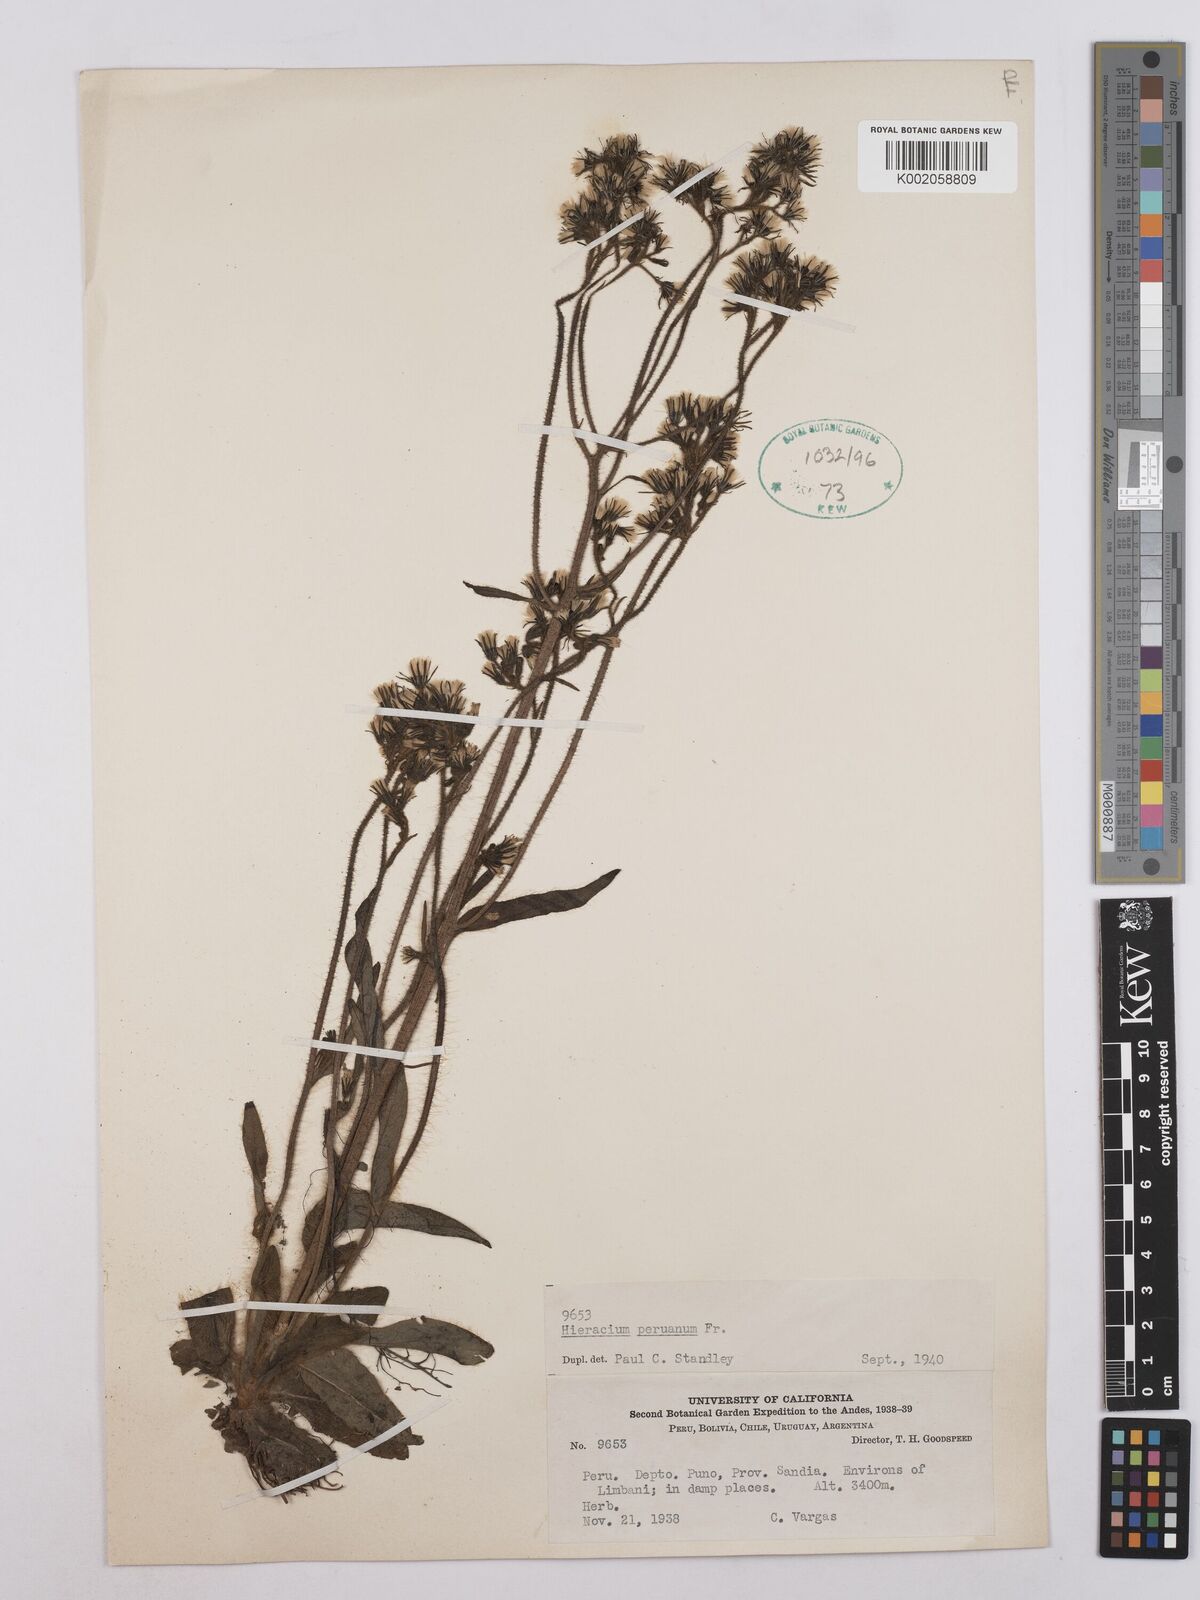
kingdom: Plantae
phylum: Tracheophyta
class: Magnoliopsida
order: Asterales
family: Asteraceae
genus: Hieracium
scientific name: Hieracium peruanum
